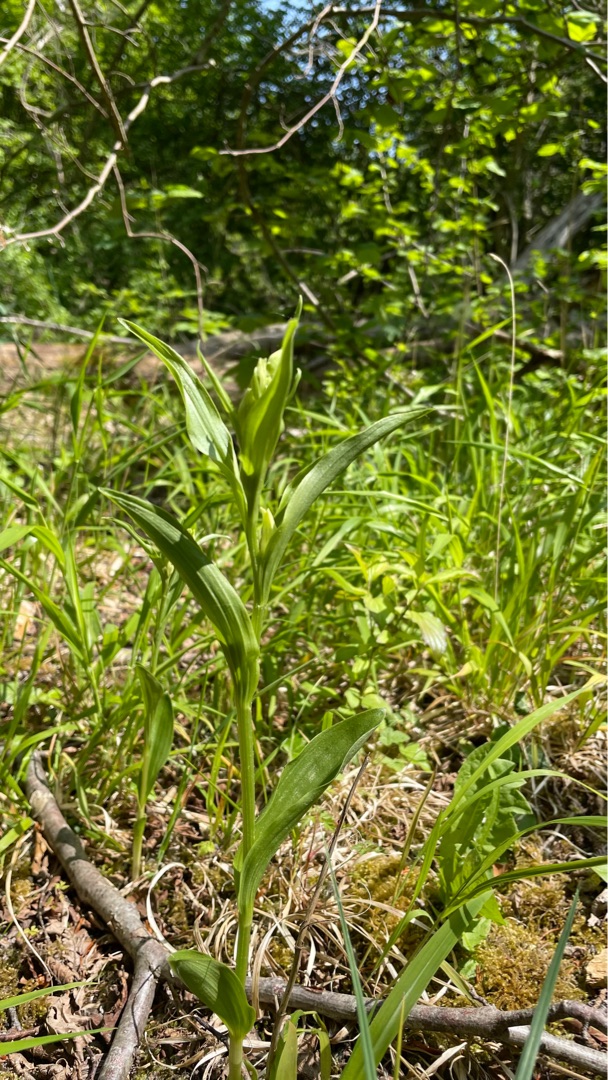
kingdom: Plantae
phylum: Tracheophyta
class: Liliopsida
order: Asparagales
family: Orchidaceae
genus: Cephalanthera
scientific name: Cephalanthera damasonium
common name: Hvidgul skovlilje
